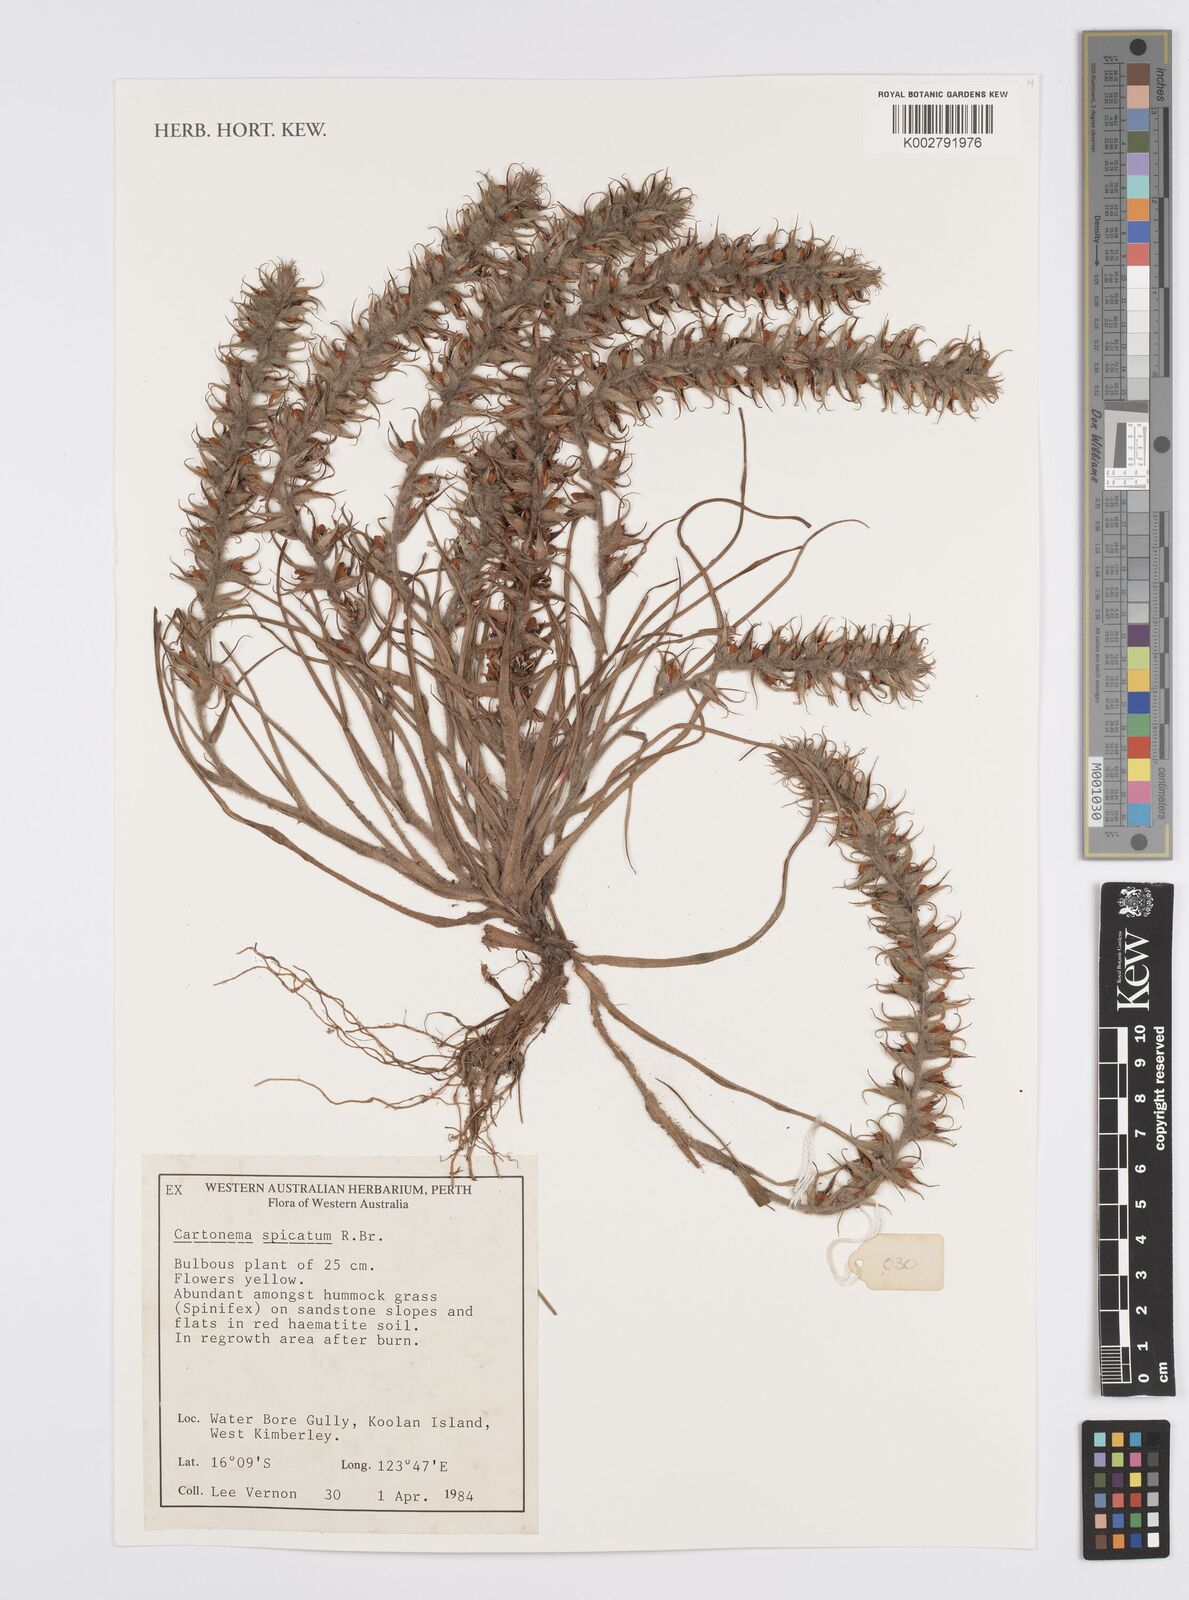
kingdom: Plantae
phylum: Tracheophyta
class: Liliopsida
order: Commelinales
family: Commelinaceae
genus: Cartonema
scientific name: Cartonema spicatum
